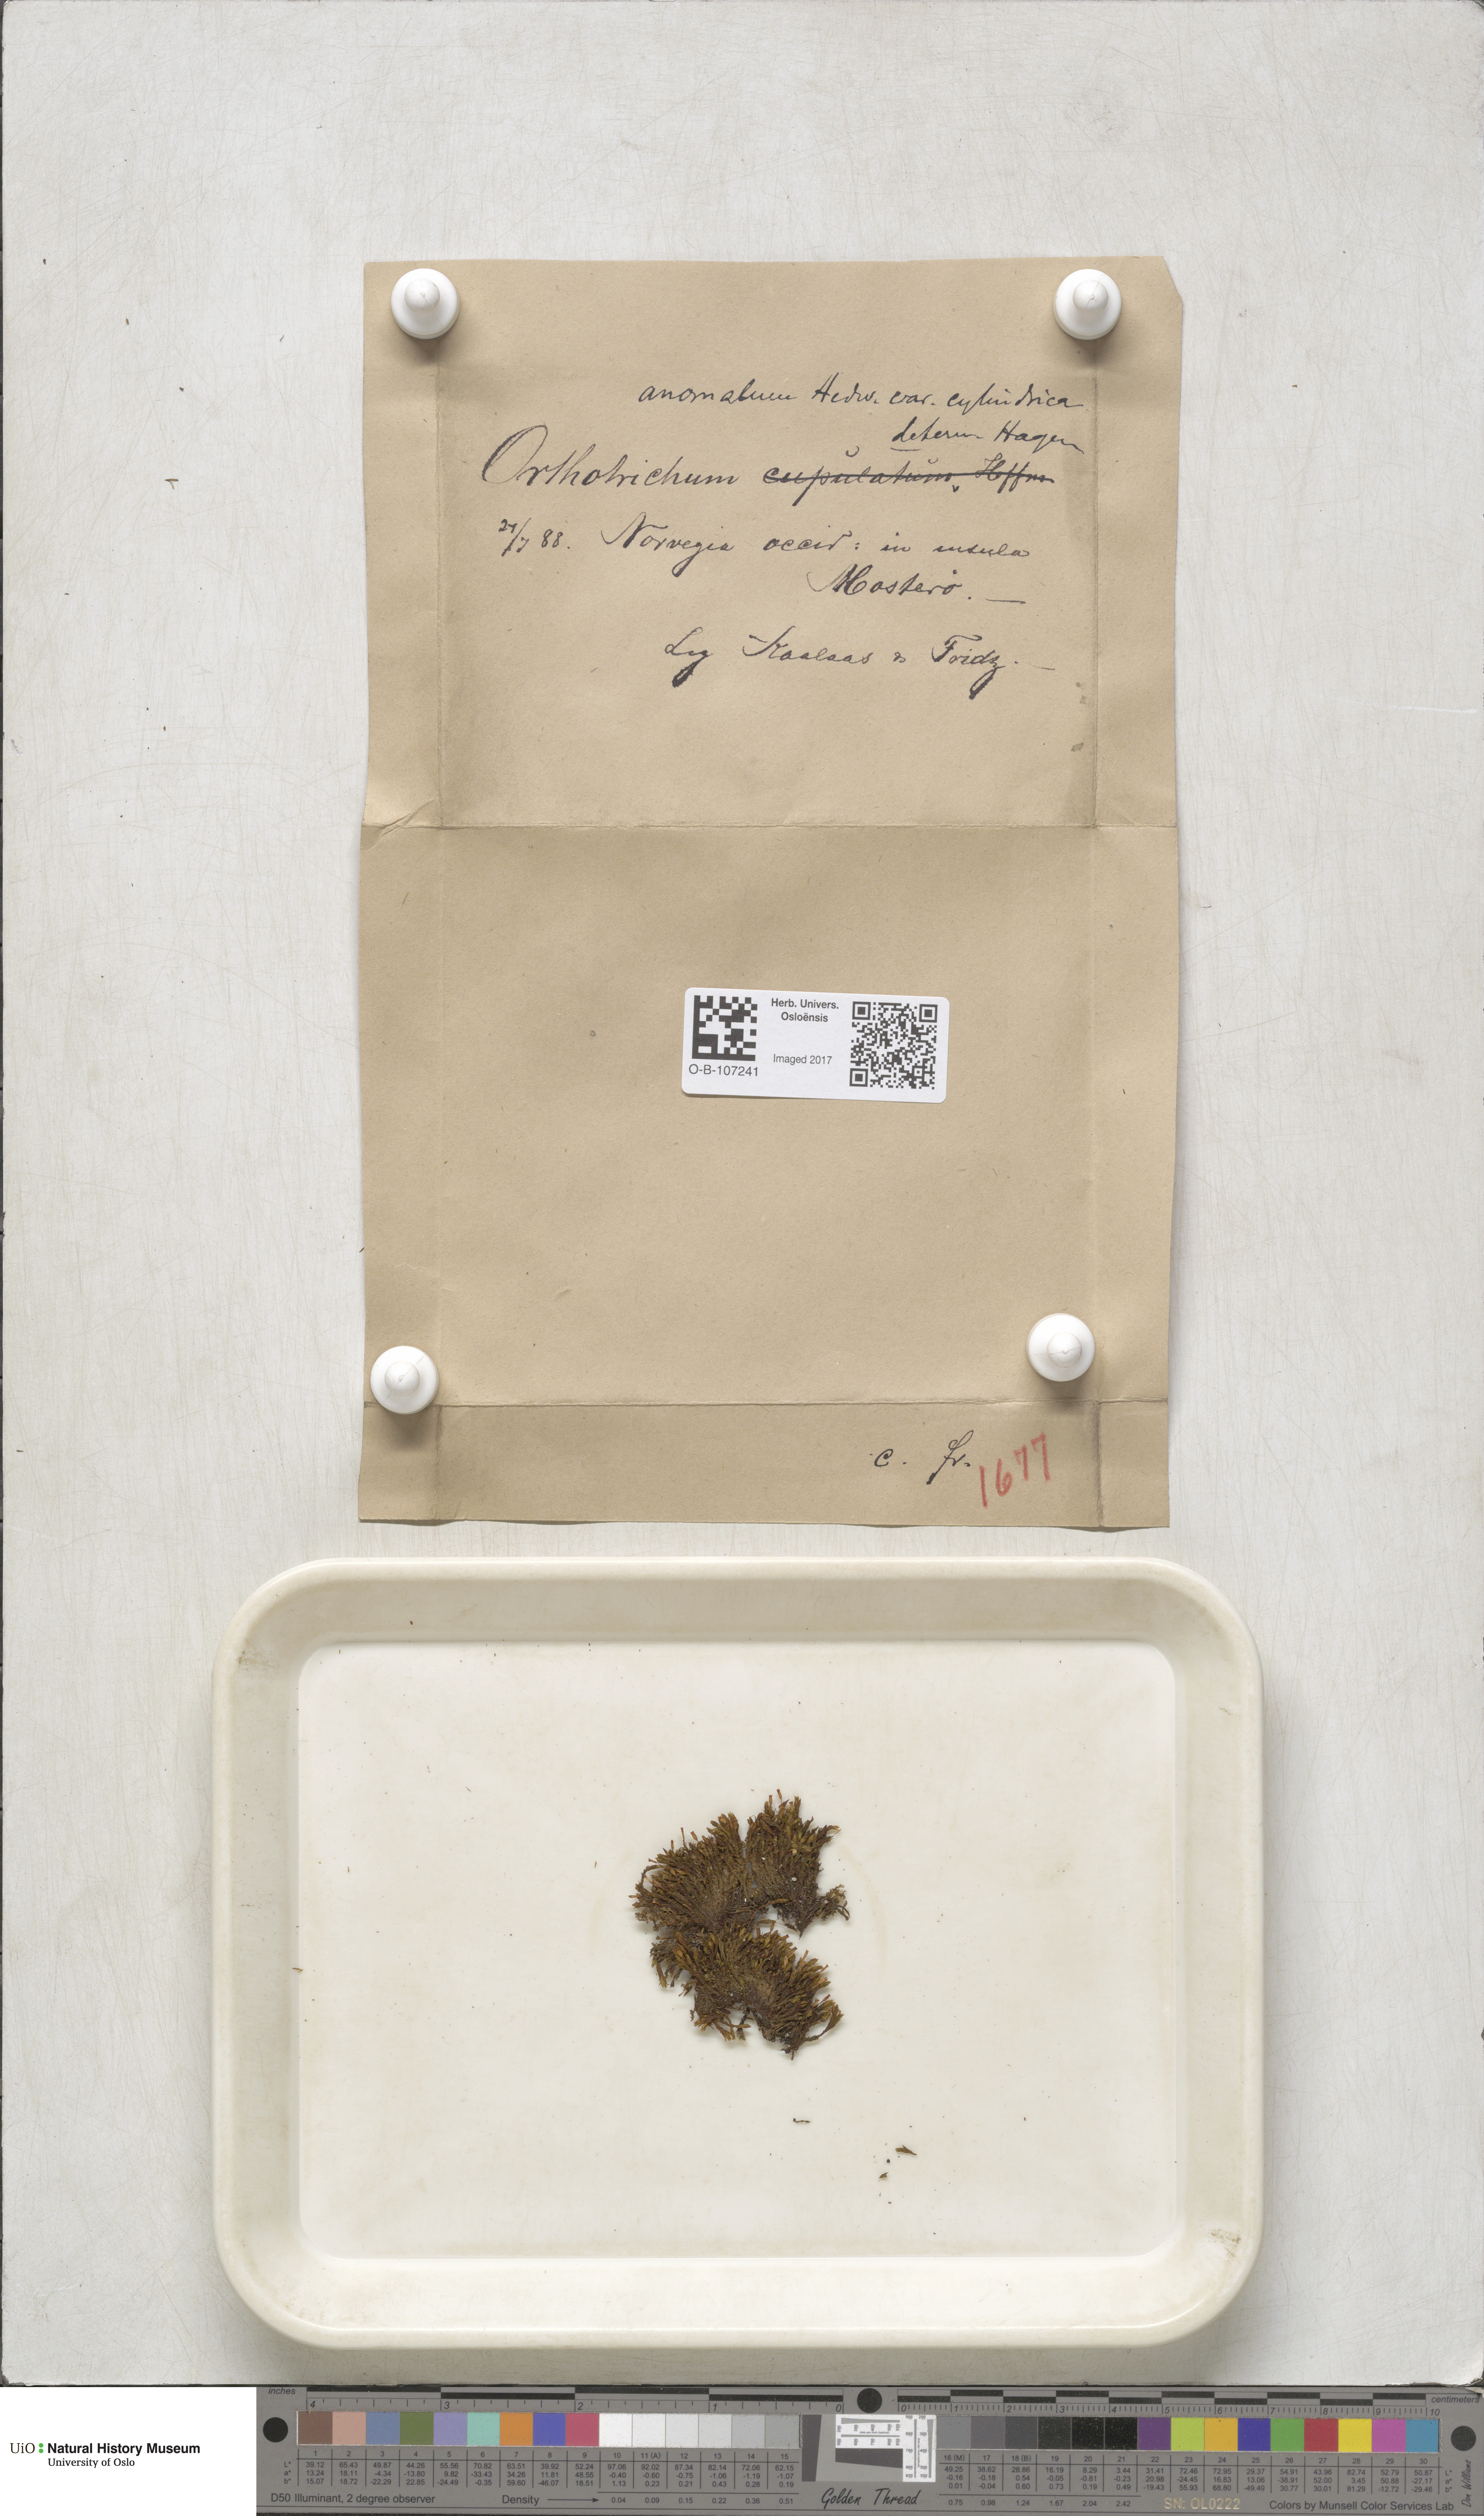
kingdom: Plantae
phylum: Bryophyta
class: Bryopsida
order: Orthotrichales
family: Orthotrichaceae
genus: Orthotrichum
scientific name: Orthotrichum anomalum
